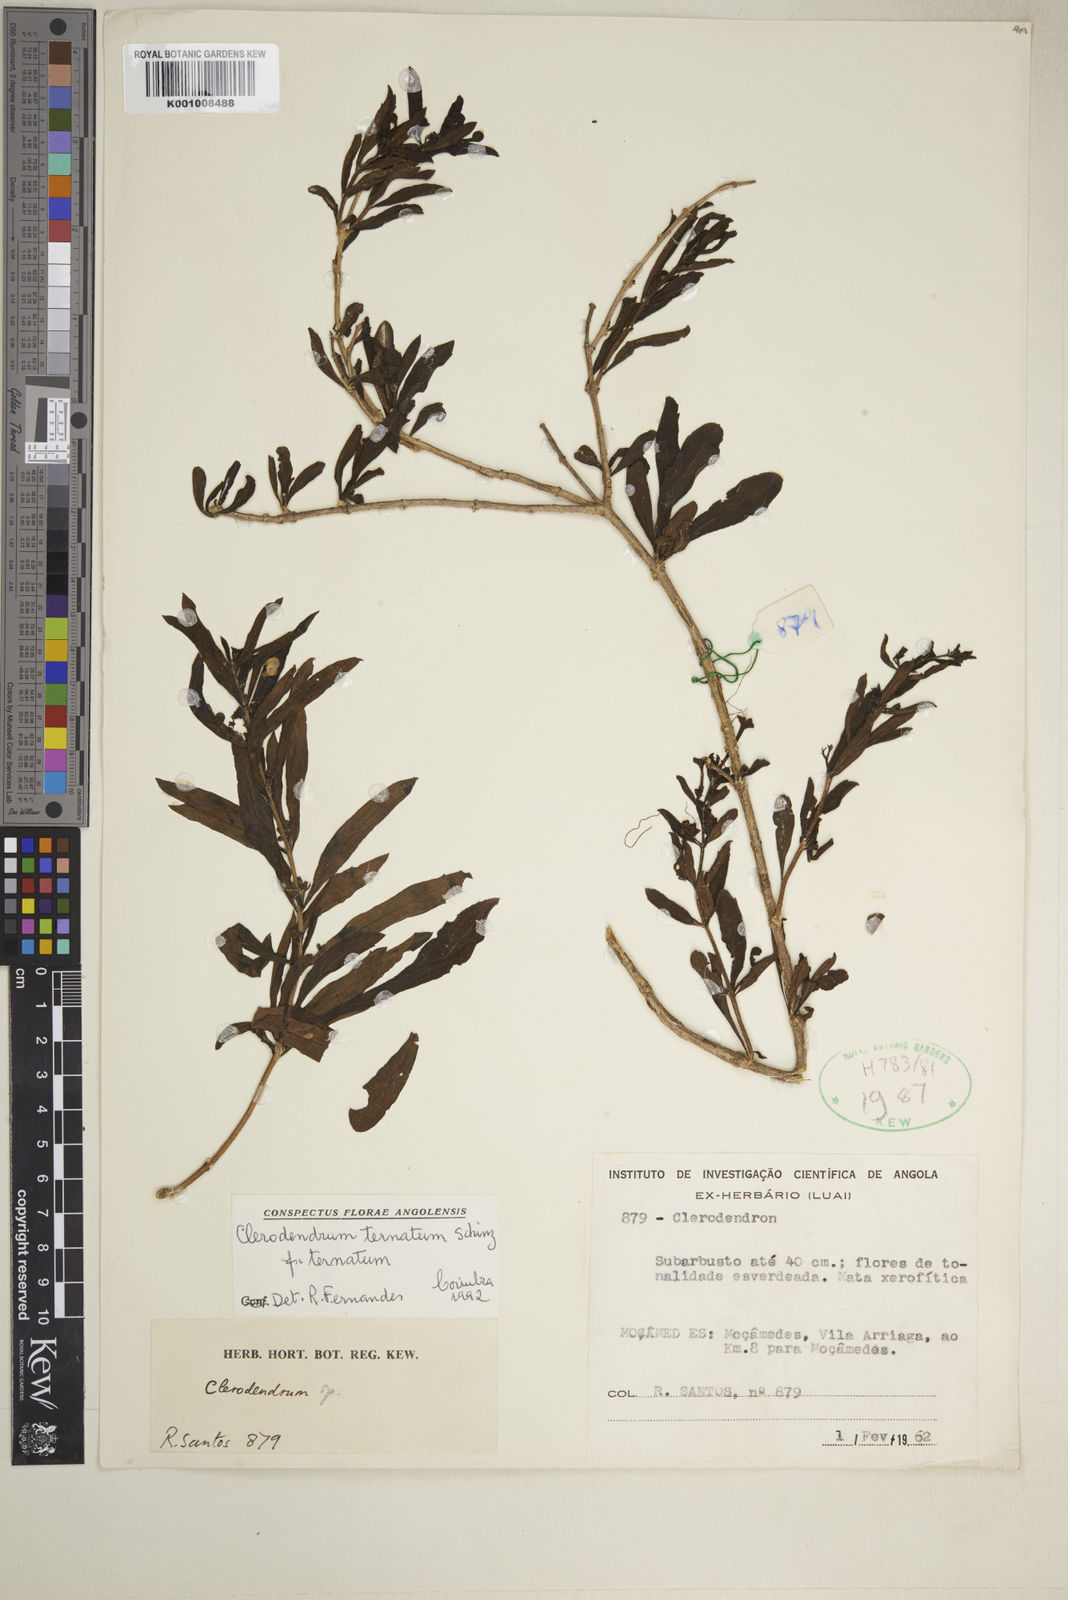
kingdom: Plantae
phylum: Tracheophyta
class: Magnoliopsida
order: Lamiales
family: Lamiaceae
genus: Clerodendrum
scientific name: Clerodendrum ternatum
